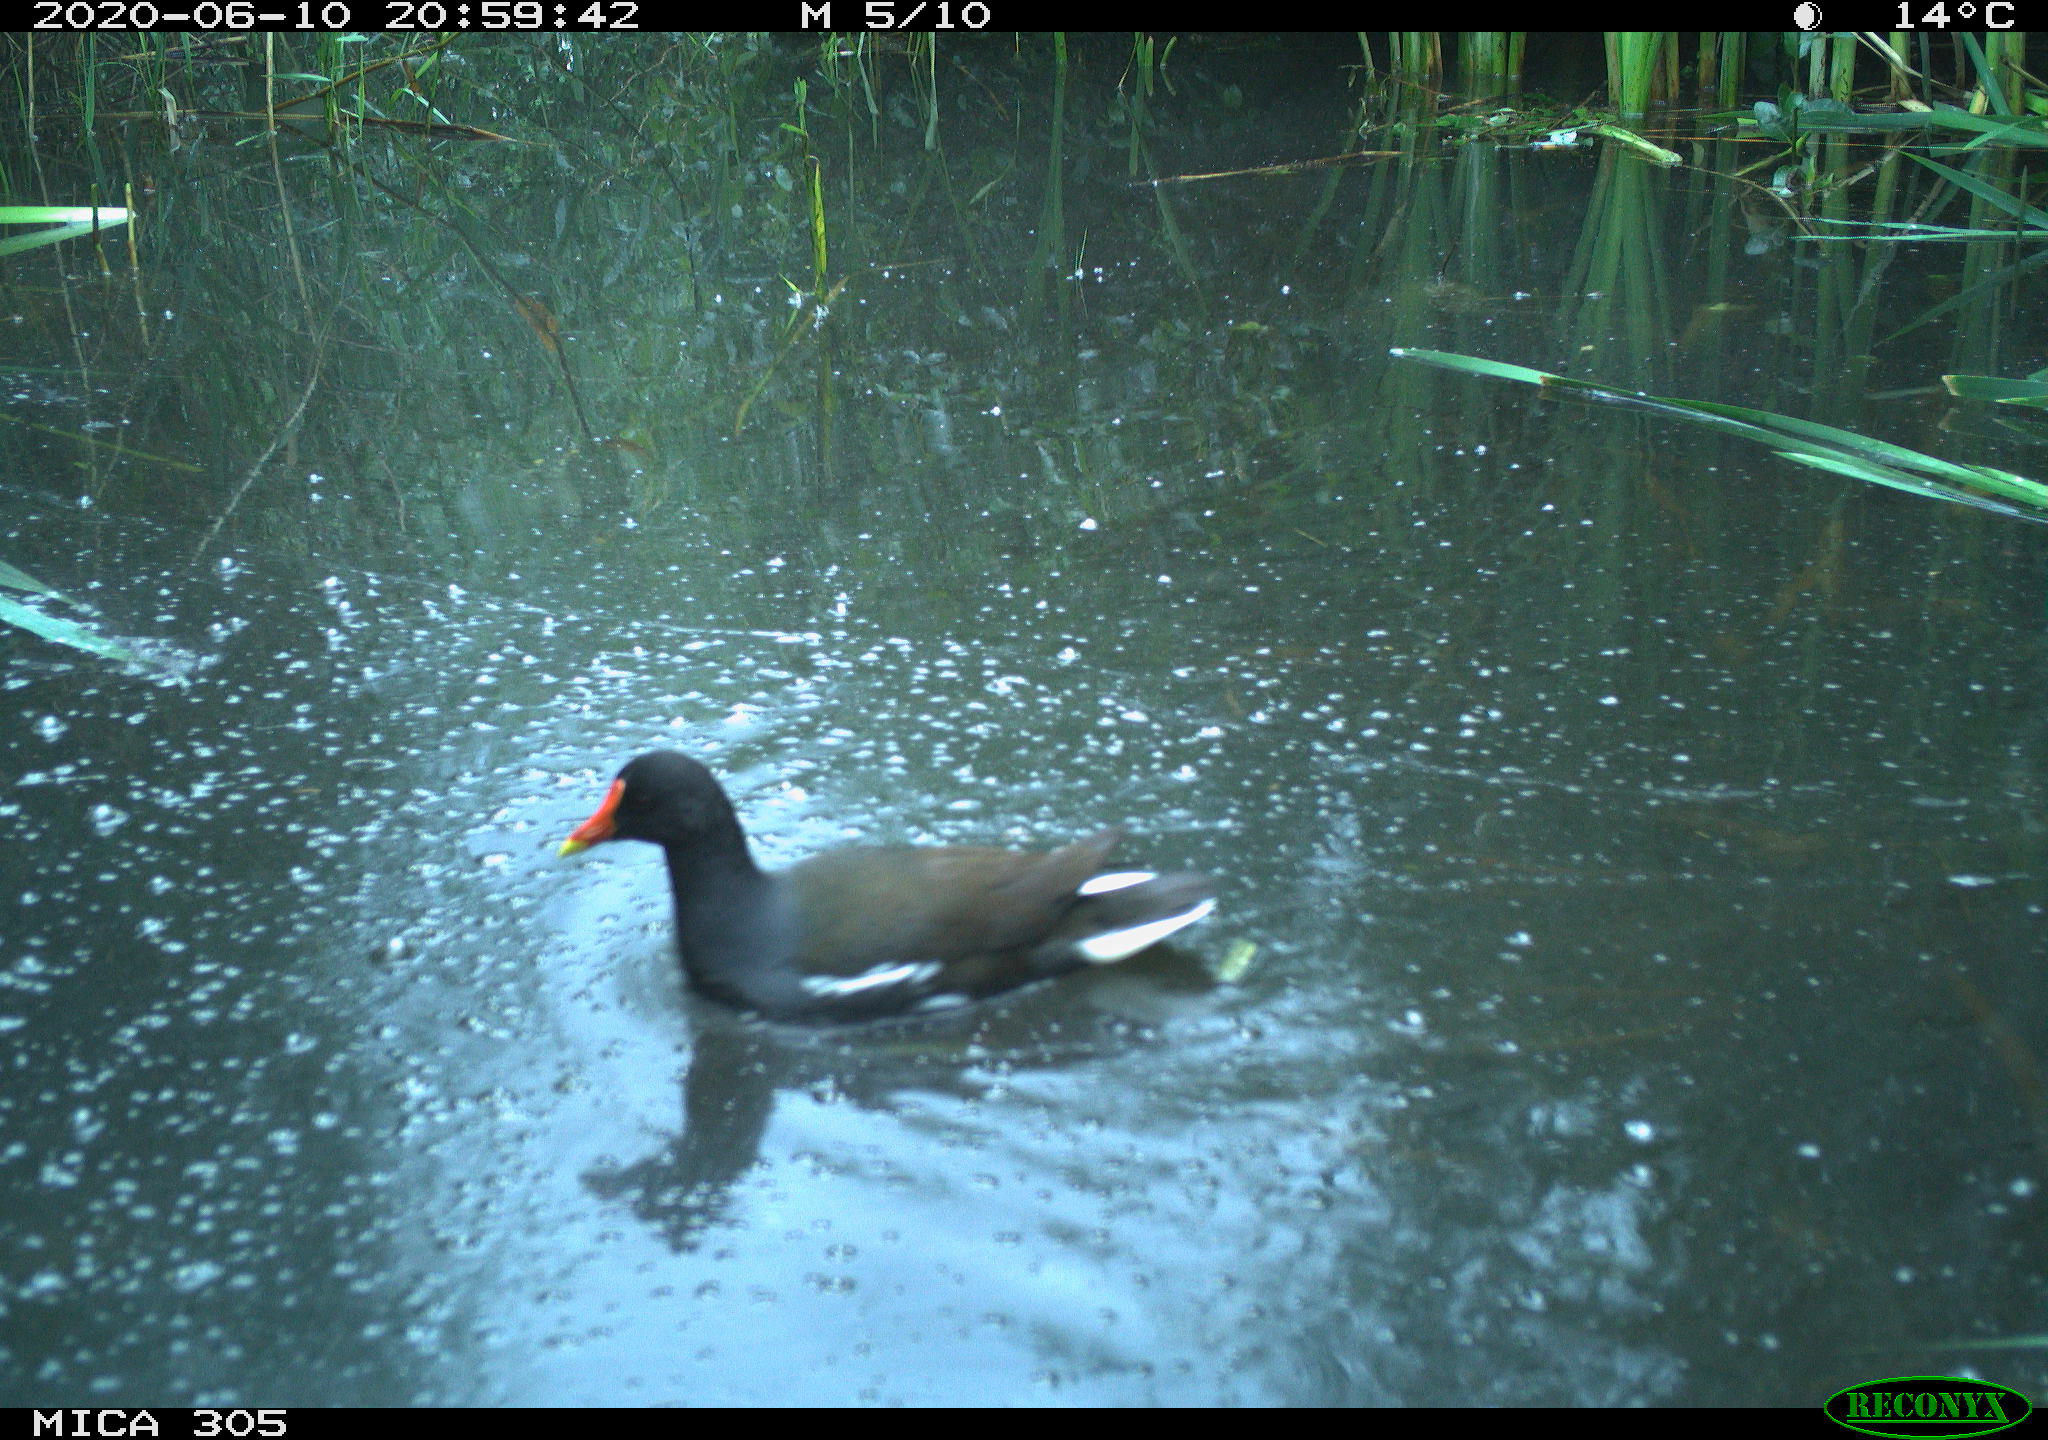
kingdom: Animalia
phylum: Chordata
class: Aves
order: Gruiformes
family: Rallidae
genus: Gallinula
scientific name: Gallinula chloropus
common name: Common moorhen
